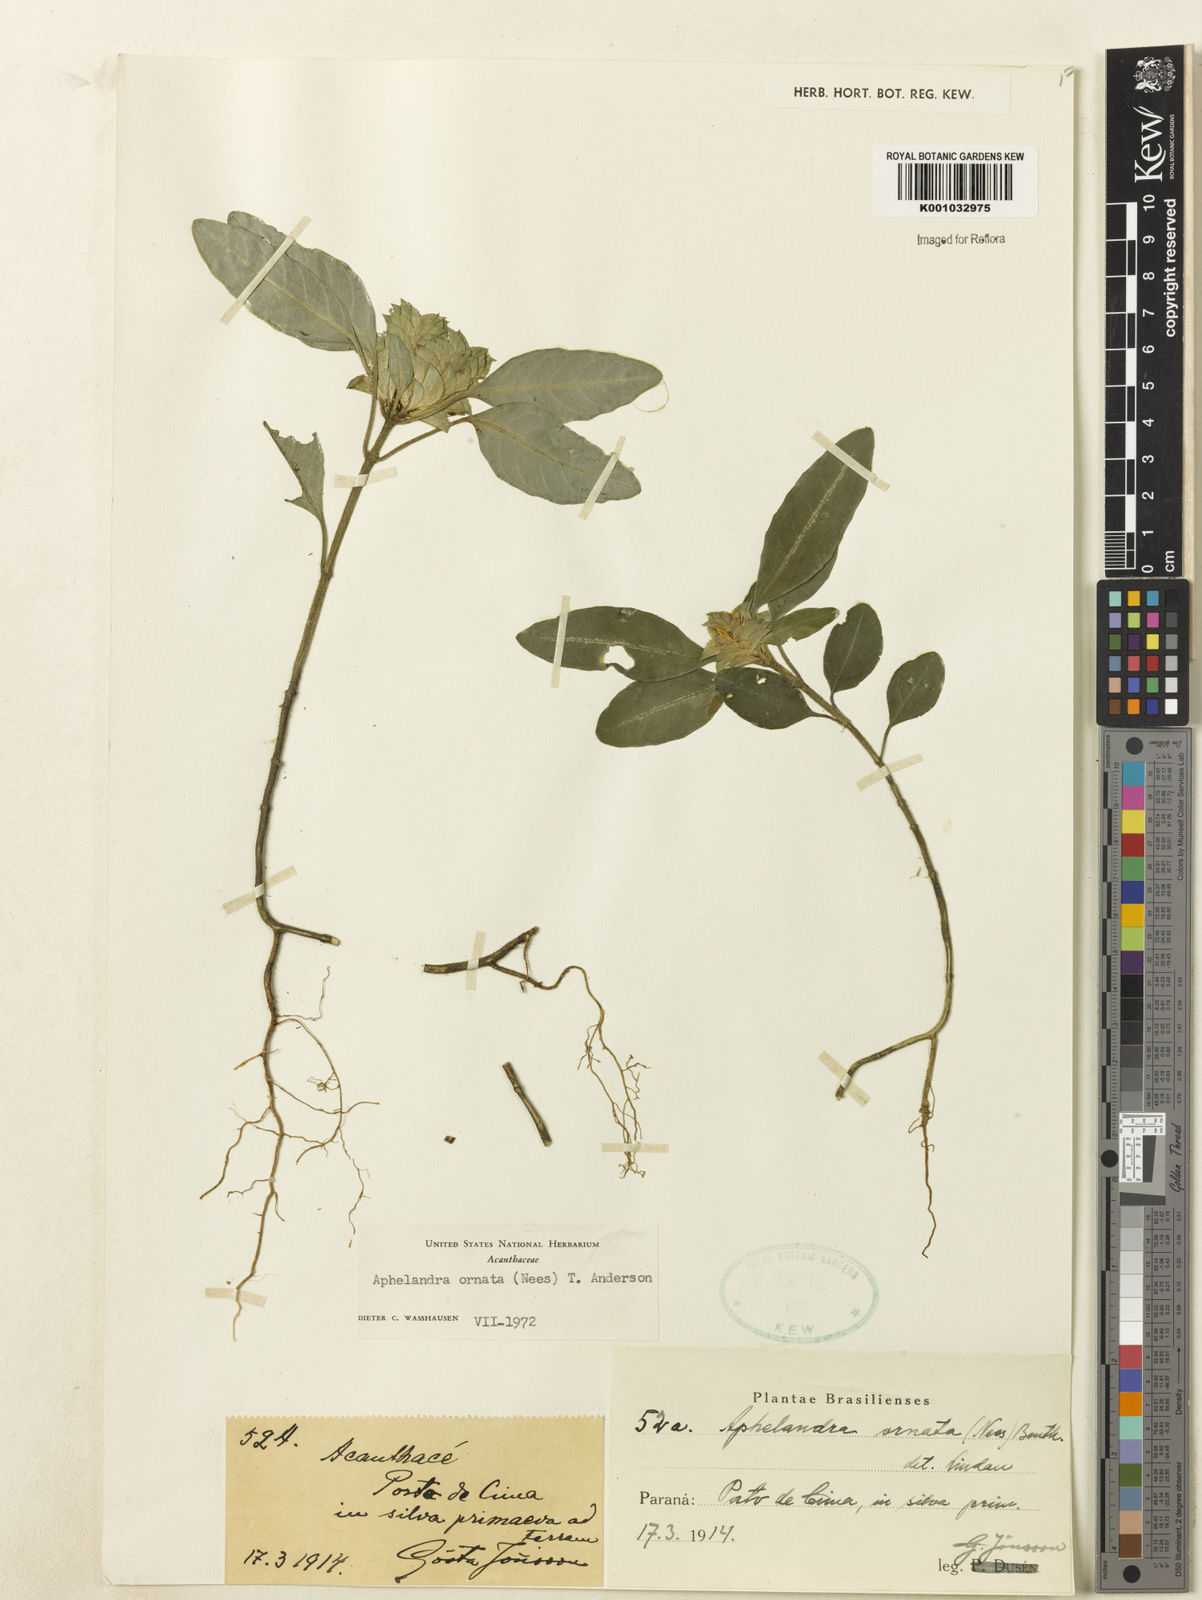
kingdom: Plantae
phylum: Tracheophyta
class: Magnoliopsida
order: Lamiales
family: Acanthaceae
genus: Aphelandra
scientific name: Aphelandra ornata
